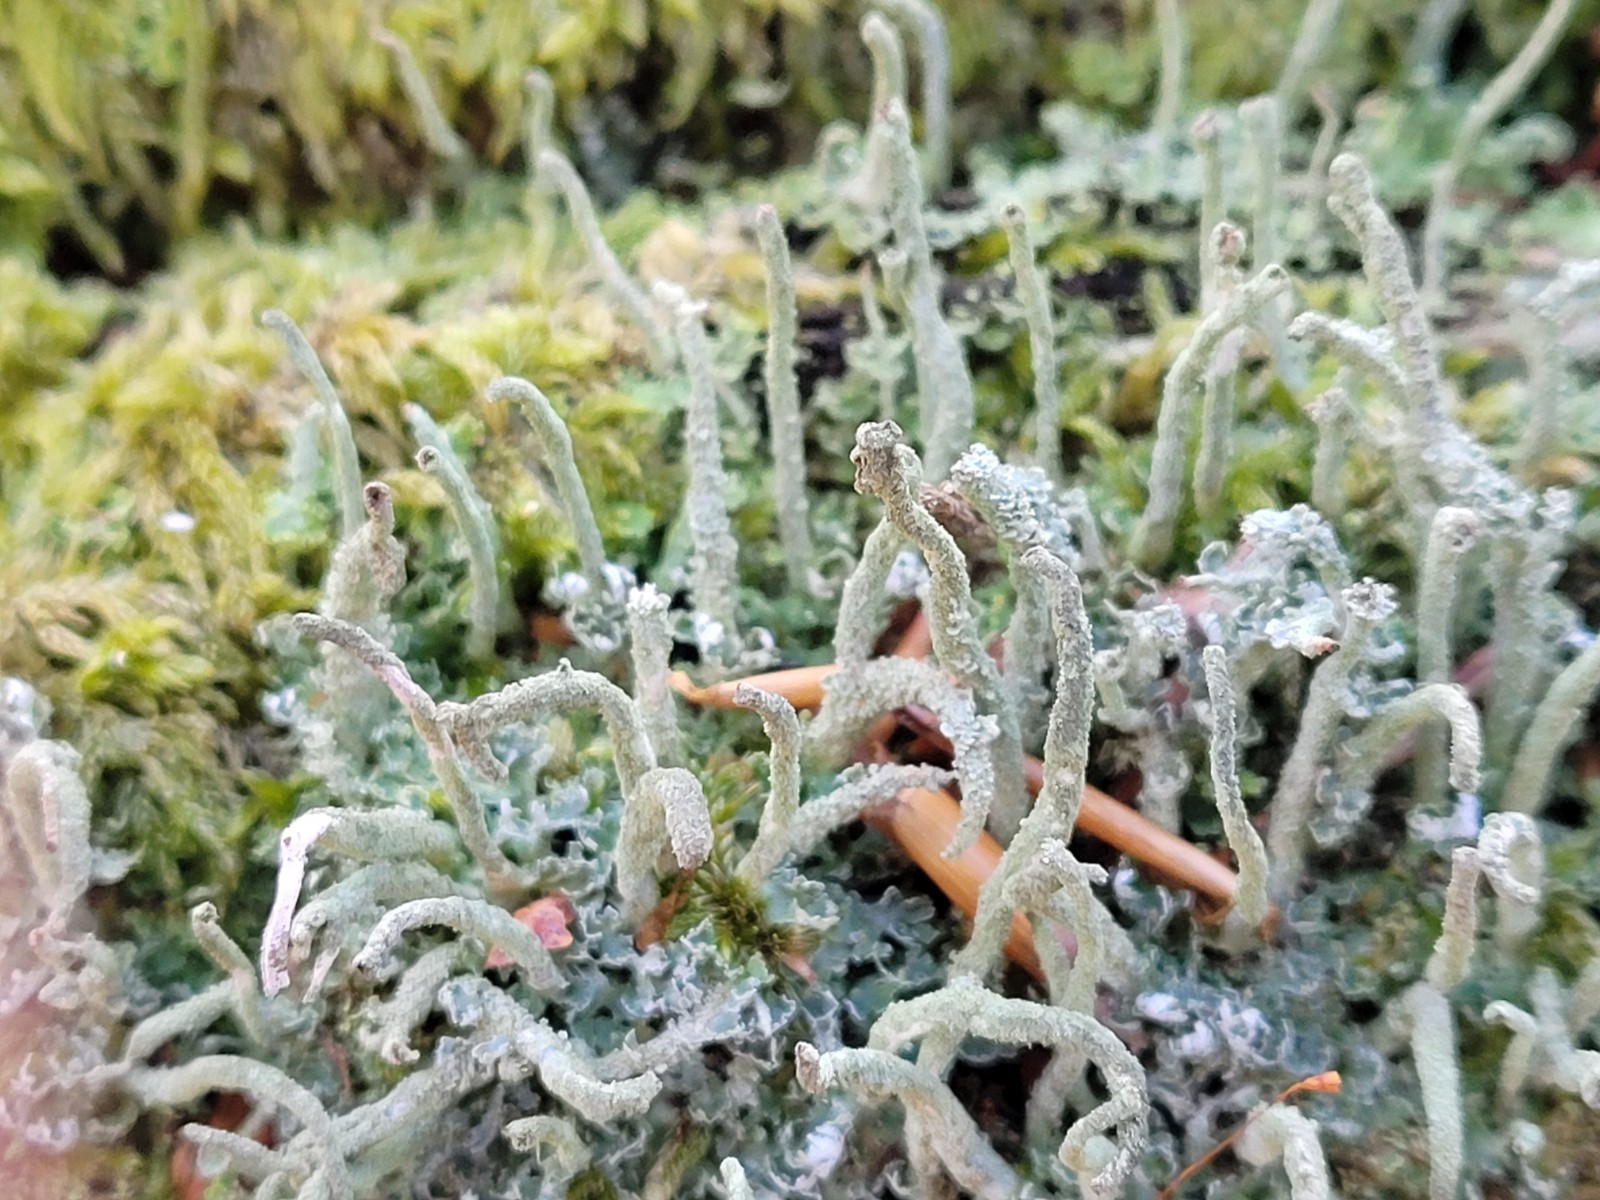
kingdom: Fungi
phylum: Ascomycota
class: Lecanoromycetes
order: Lecanorales
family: Cladoniaceae
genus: Cladonia
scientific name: Cladonia coniocraea
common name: træfods-bægerlav
